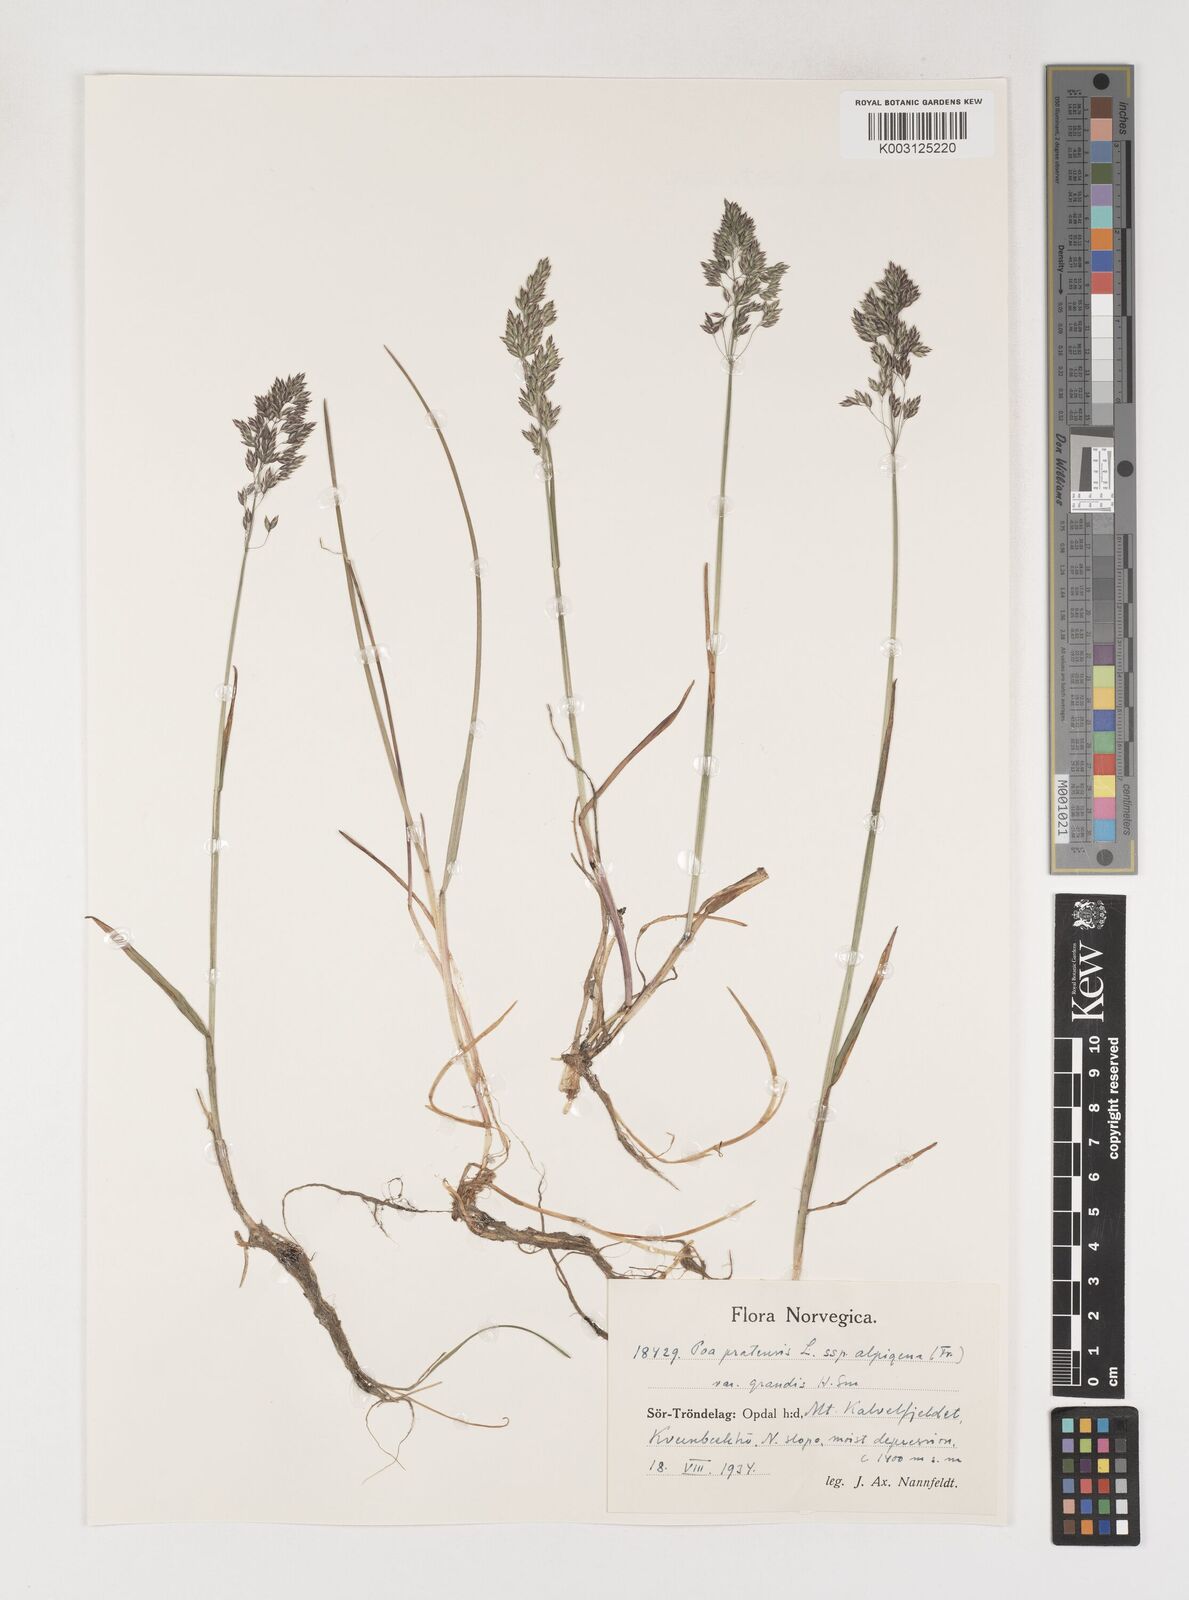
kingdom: Plantae
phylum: Tracheophyta
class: Liliopsida
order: Poales
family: Poaceae
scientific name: Poaceae
